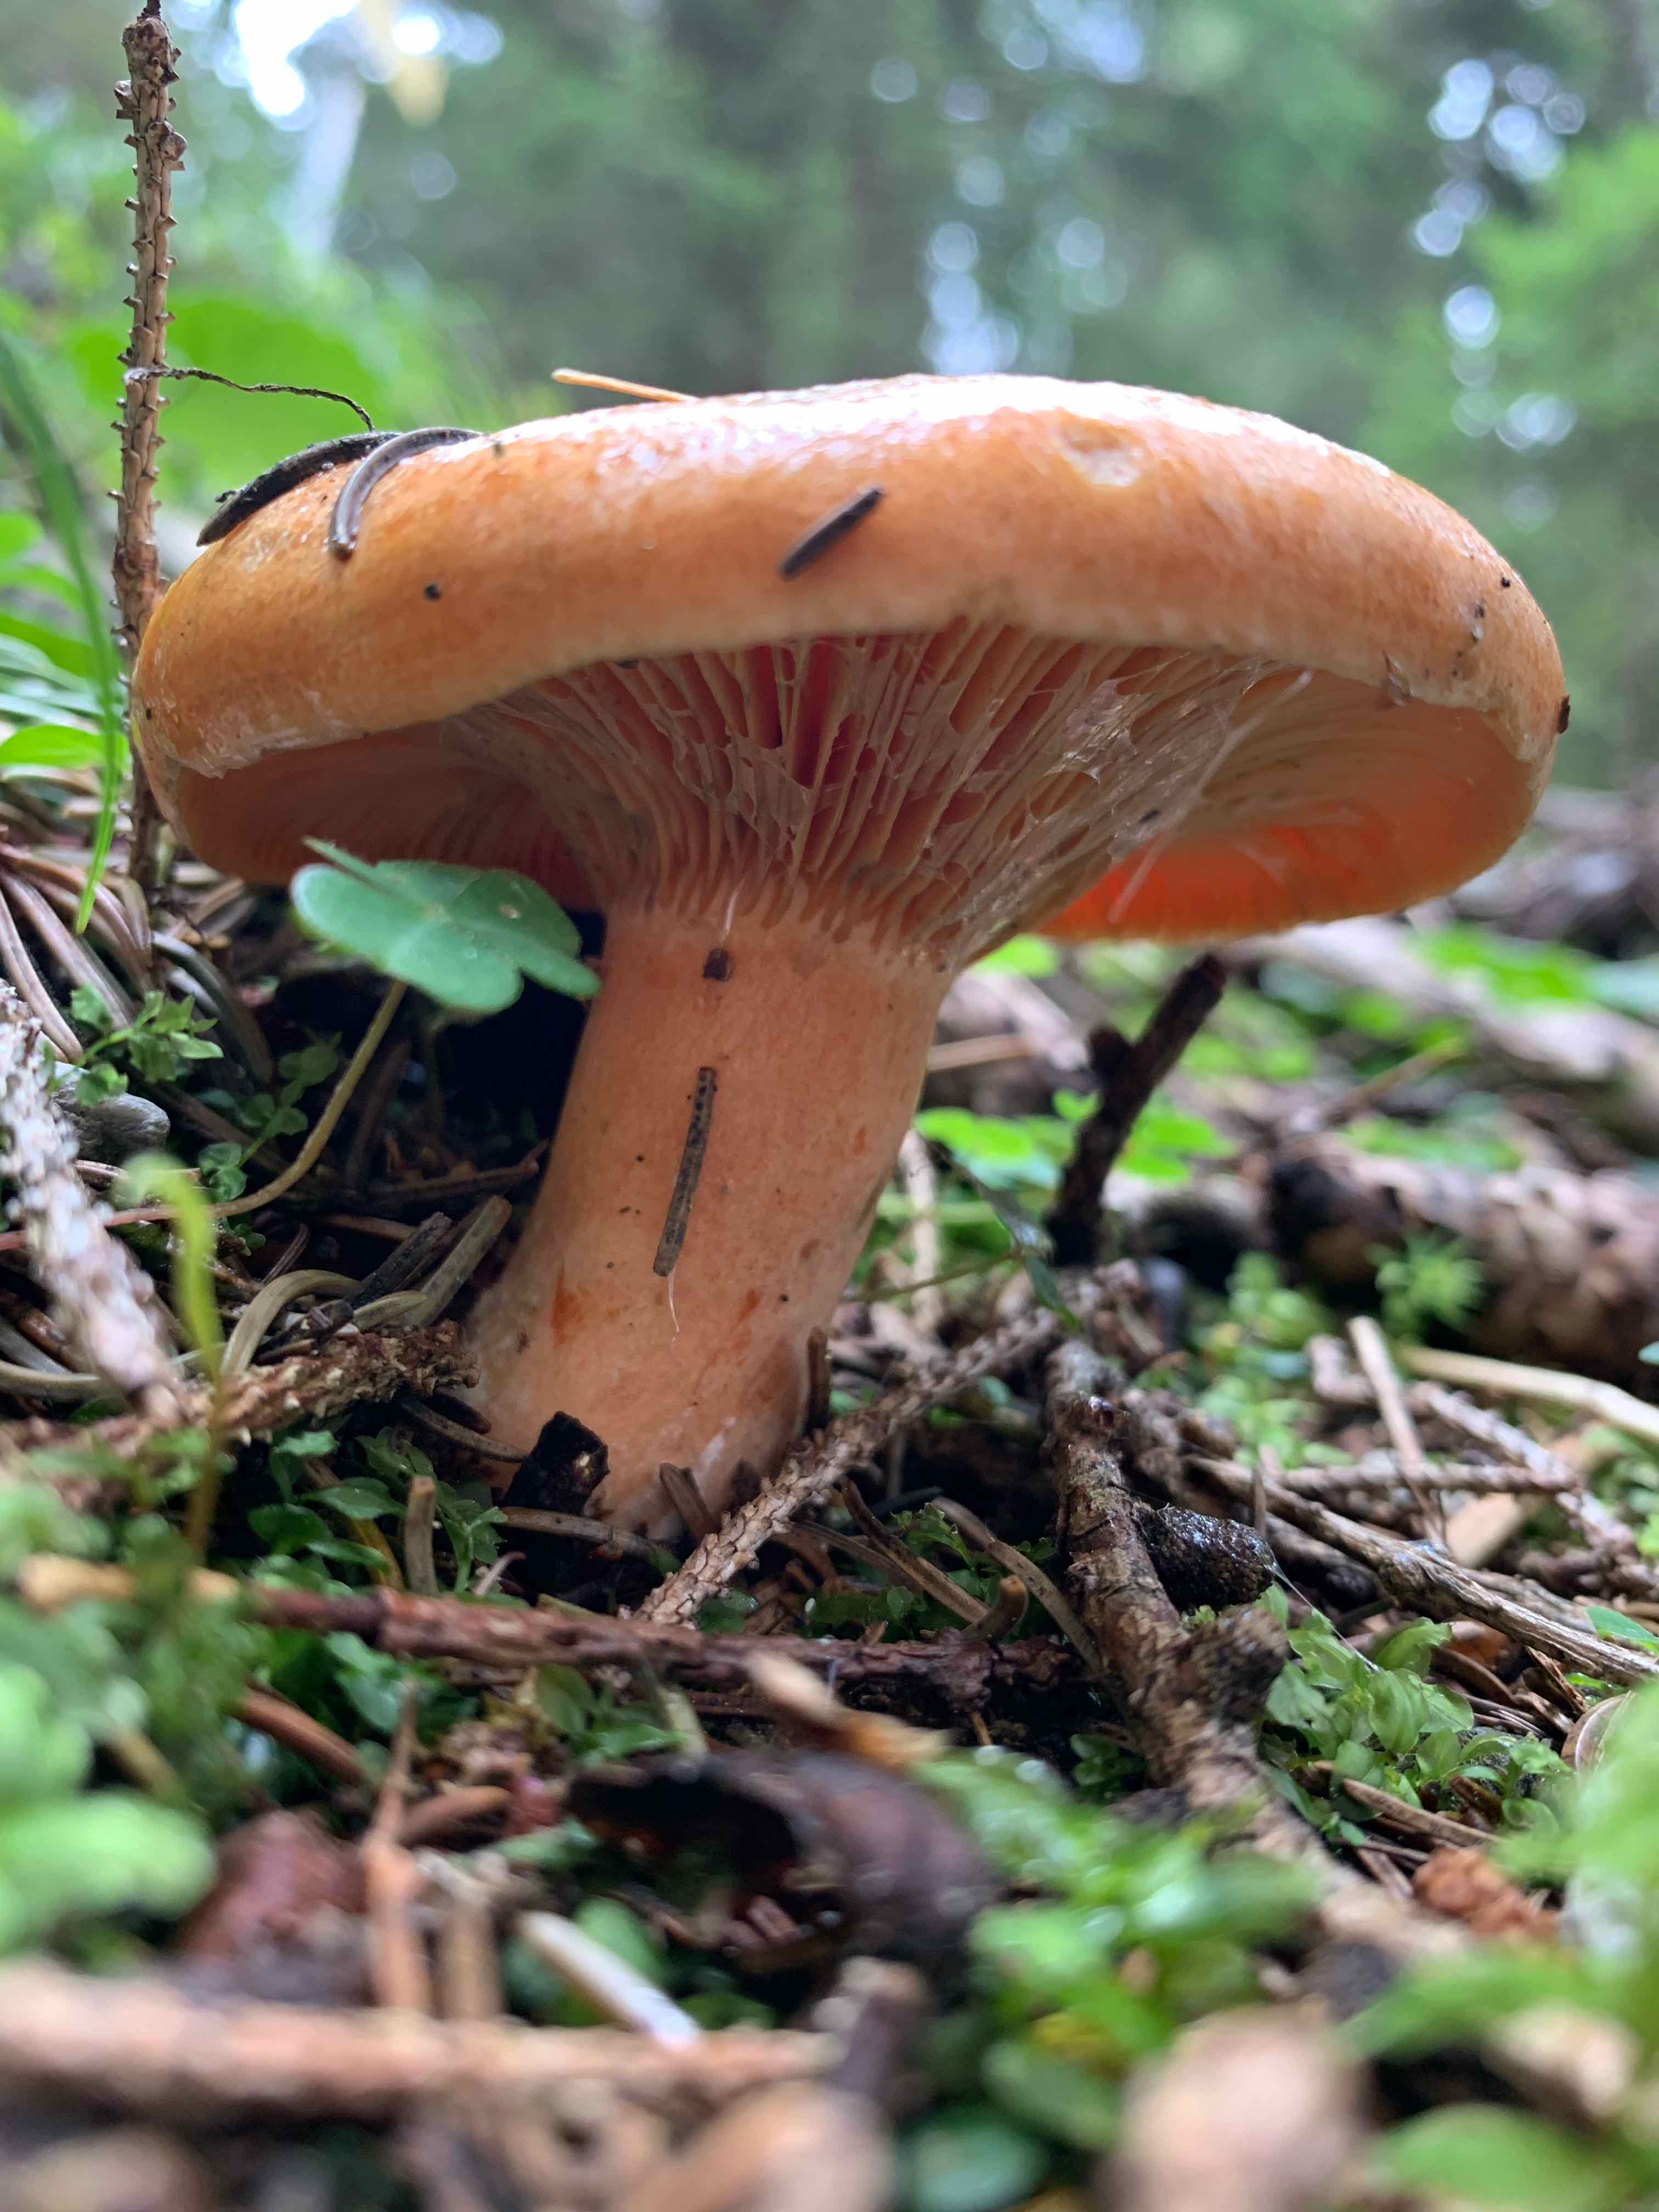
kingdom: Fungi
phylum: Basidiomycota
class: Agaricomycetes
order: Russulales
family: Russulaceae
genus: Lactarius
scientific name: Lactarius deterrimus
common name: gran-mælkehat
